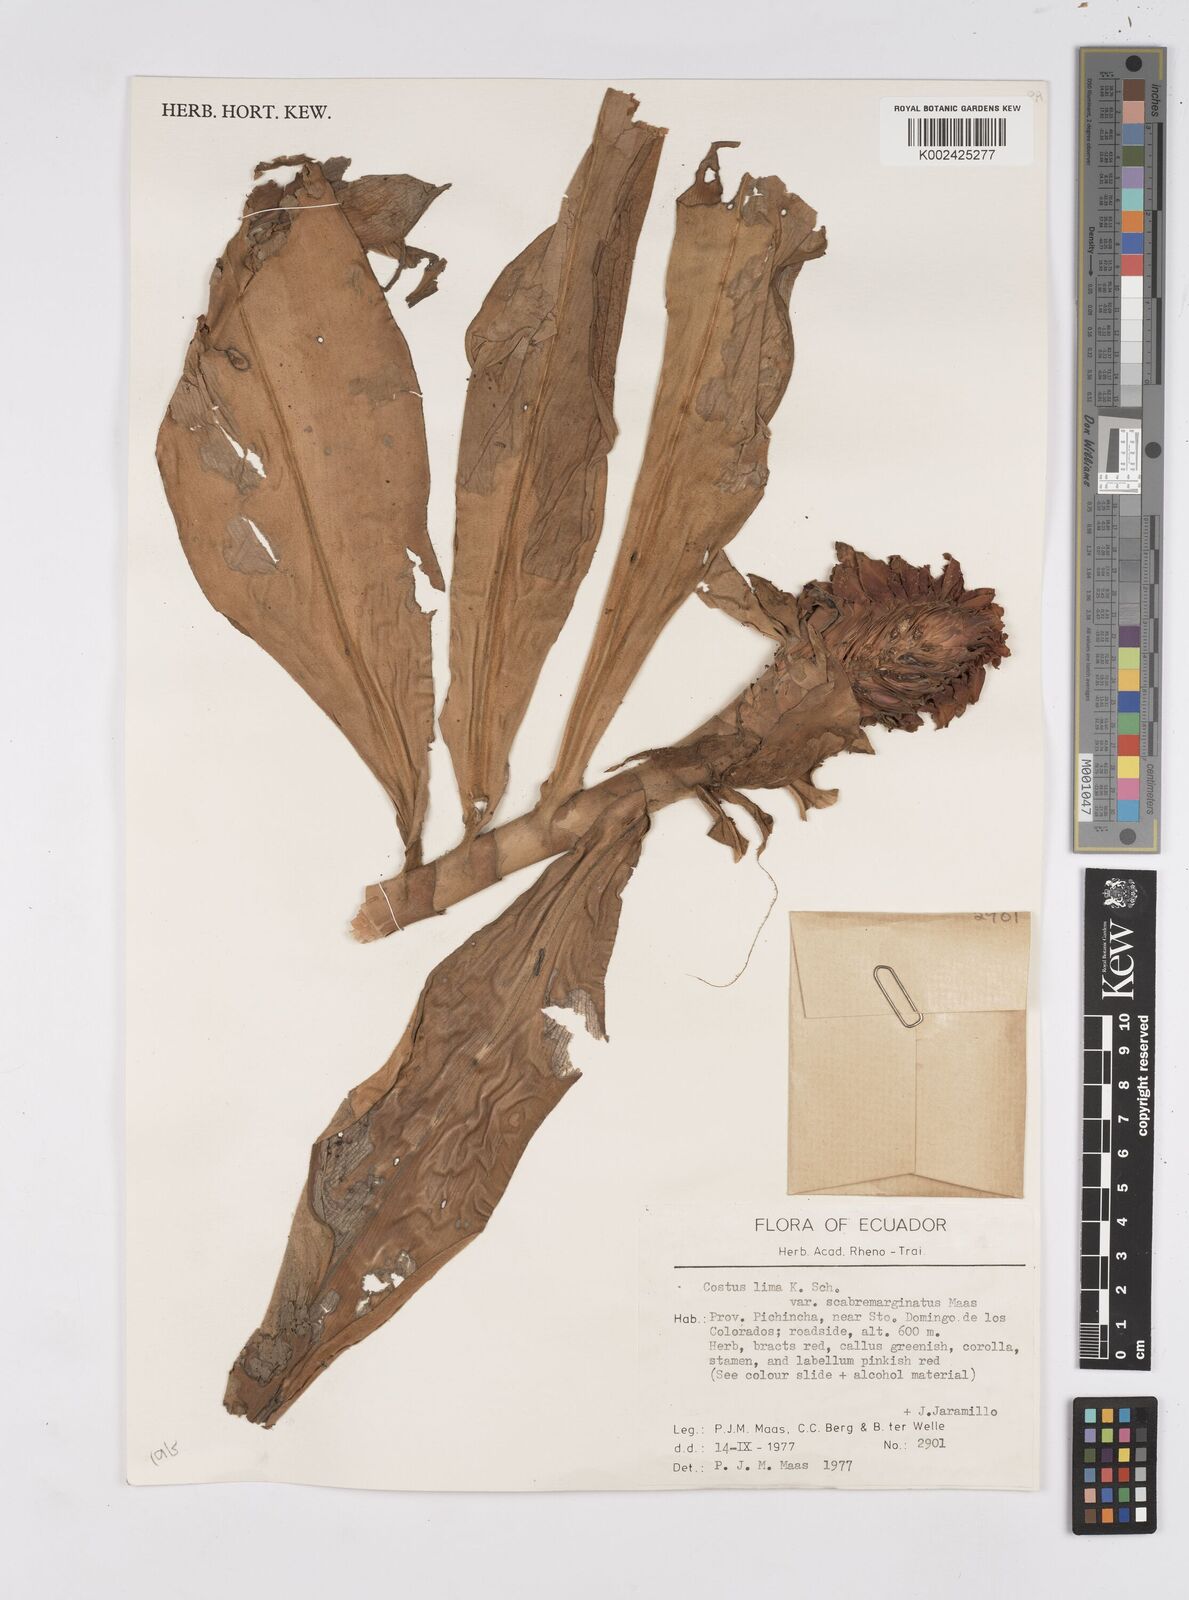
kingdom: Plantae
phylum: Tracheophyta
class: Liliopsida
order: Zingiberales
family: Costaceae
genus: Costus
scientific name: Costus lima
